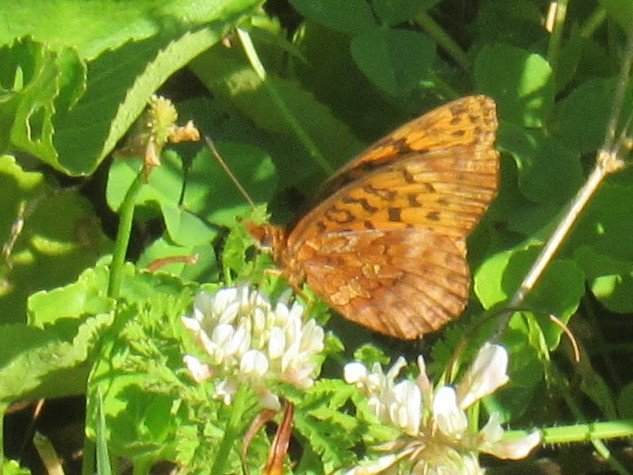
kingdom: Animalia
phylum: Arthropoda
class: Insecta
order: Lepidoptera
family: Nymphalidae
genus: Clossiana
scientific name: Clossiana toddi
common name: Meadow Fritillary
